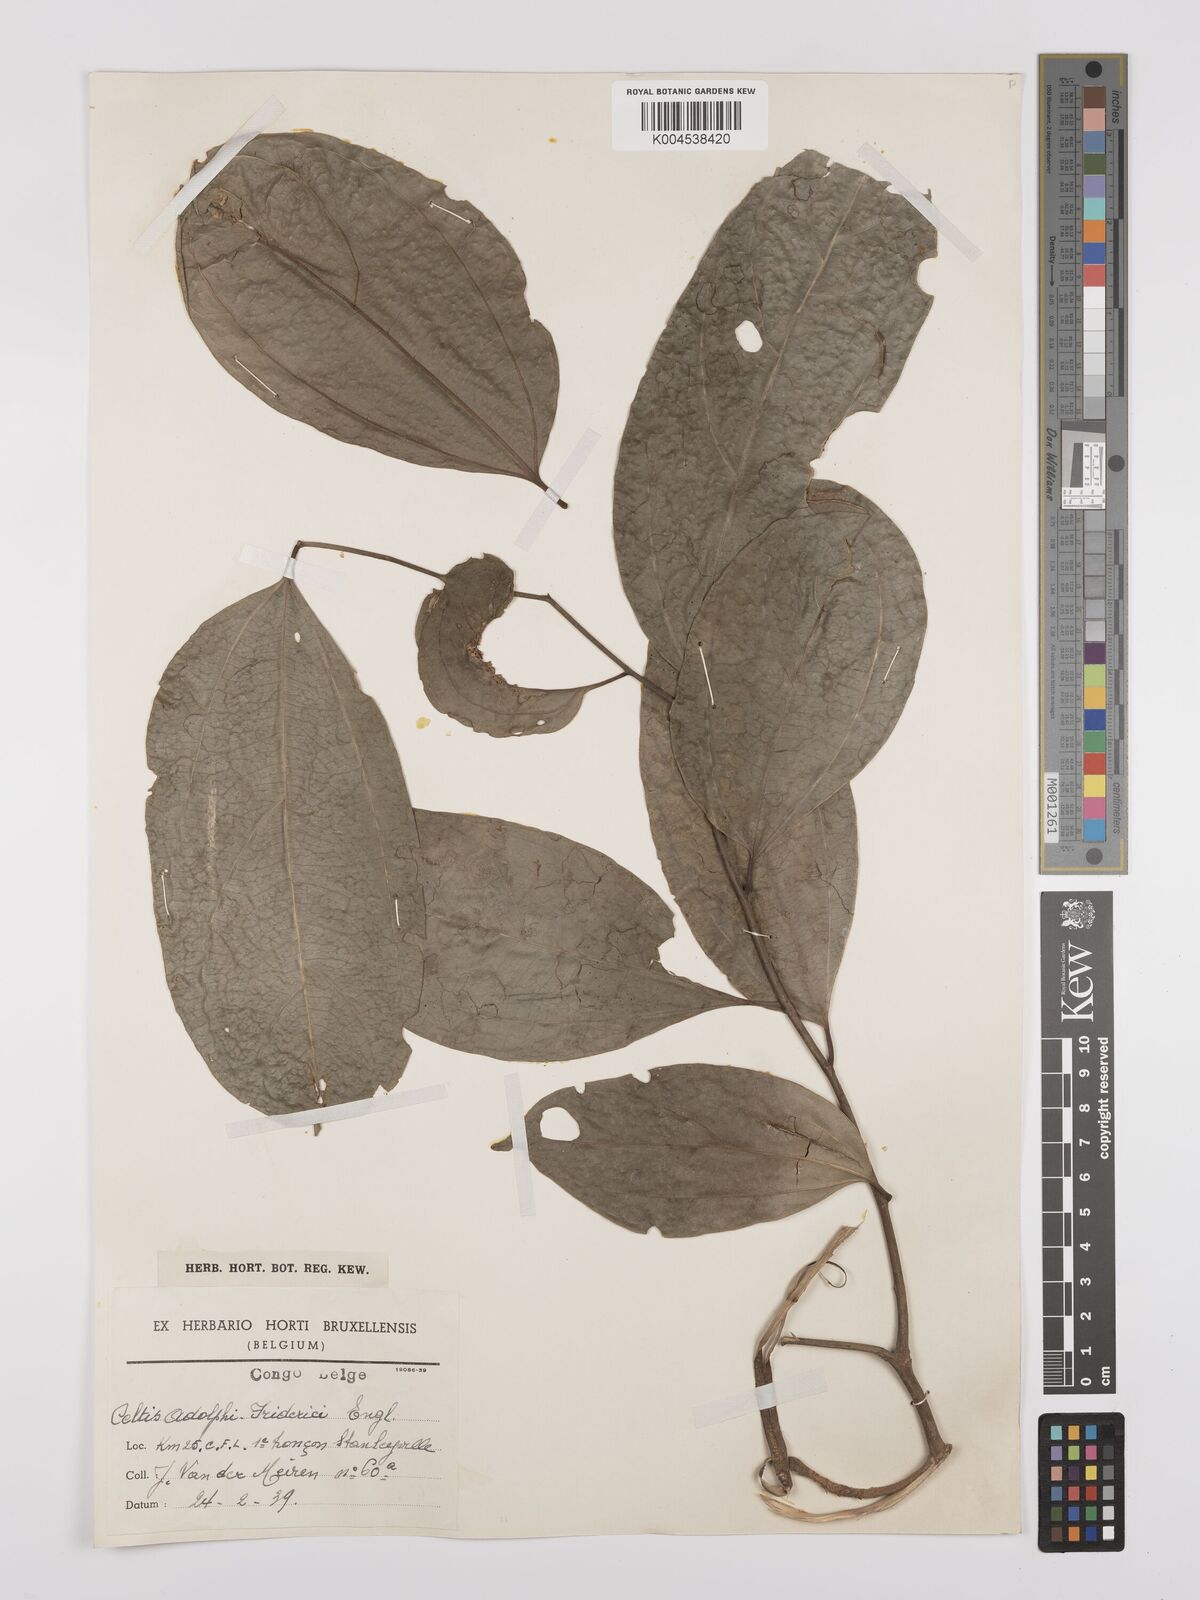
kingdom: Plantae
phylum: Tracheophyta
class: Magnoliopsida
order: Rosales
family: Cannabaceae
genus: Celtis
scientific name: Celtis adolfi-friderici
